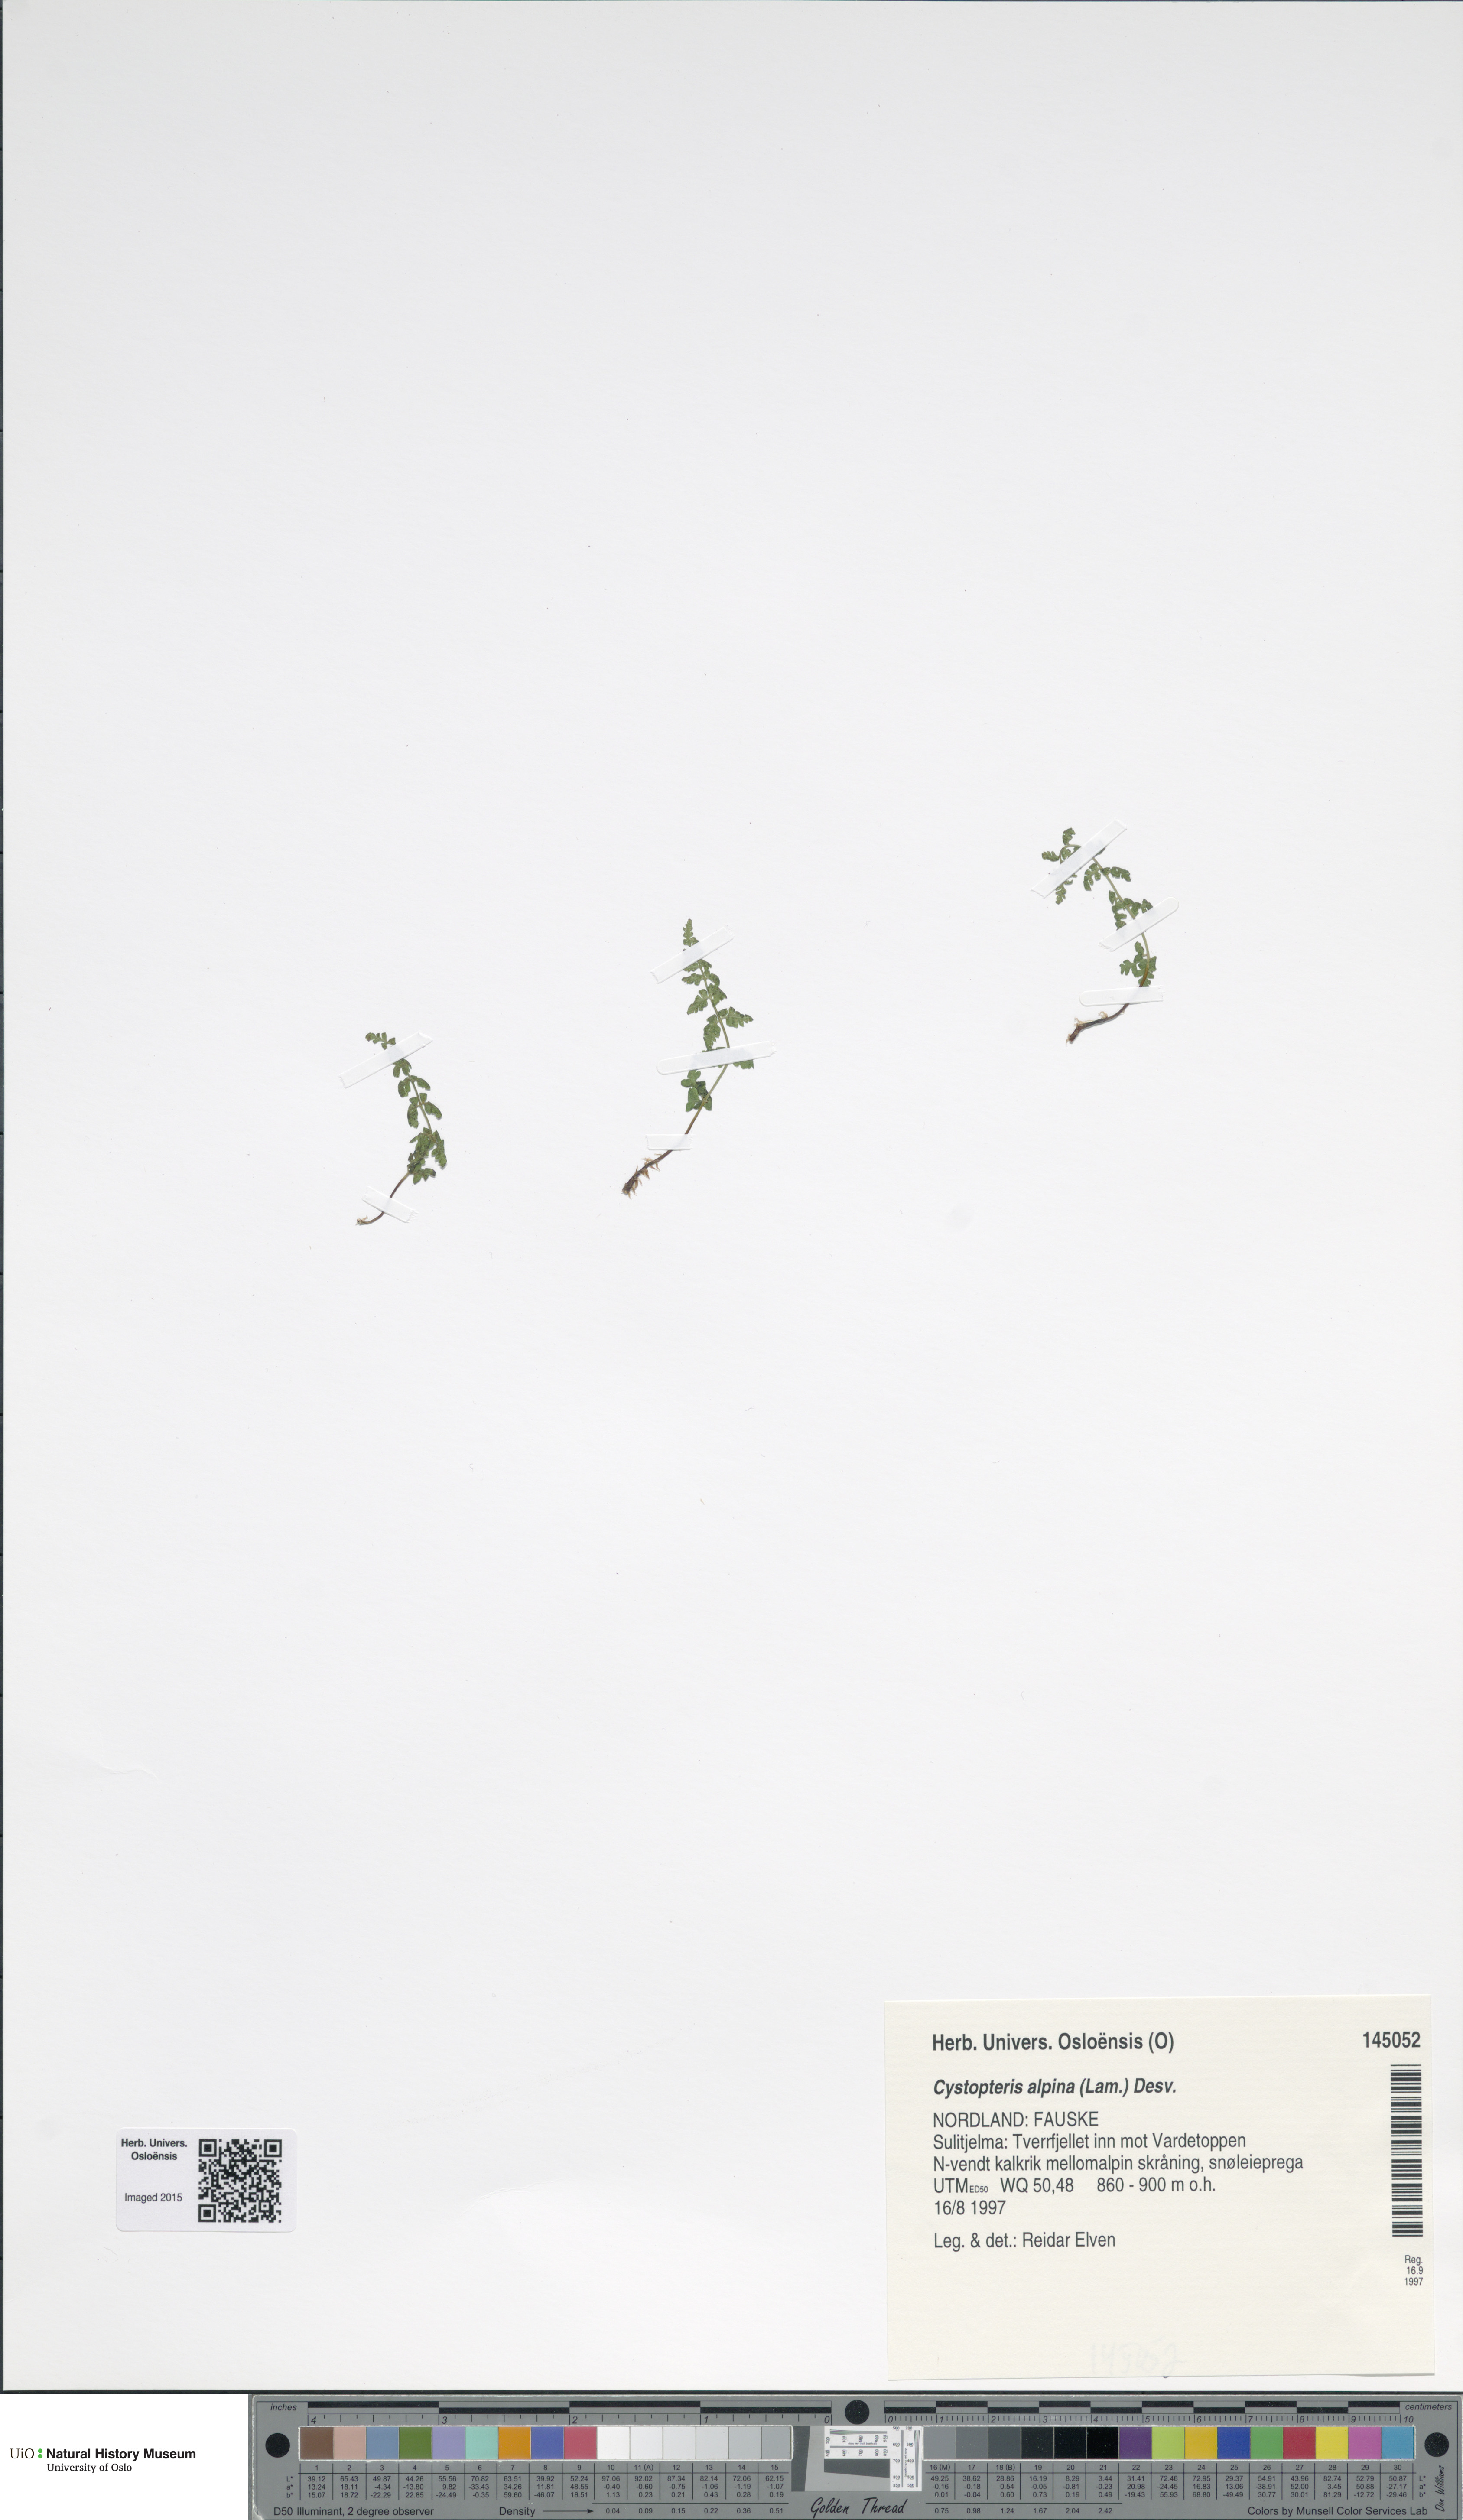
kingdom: Plantae
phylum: Tracheophyta
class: Polypodiopsida
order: Polypodiales
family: Cystopteridaceae
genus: Cystopteris
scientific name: Cystopteris alpina
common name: Alpine bladder-fern
